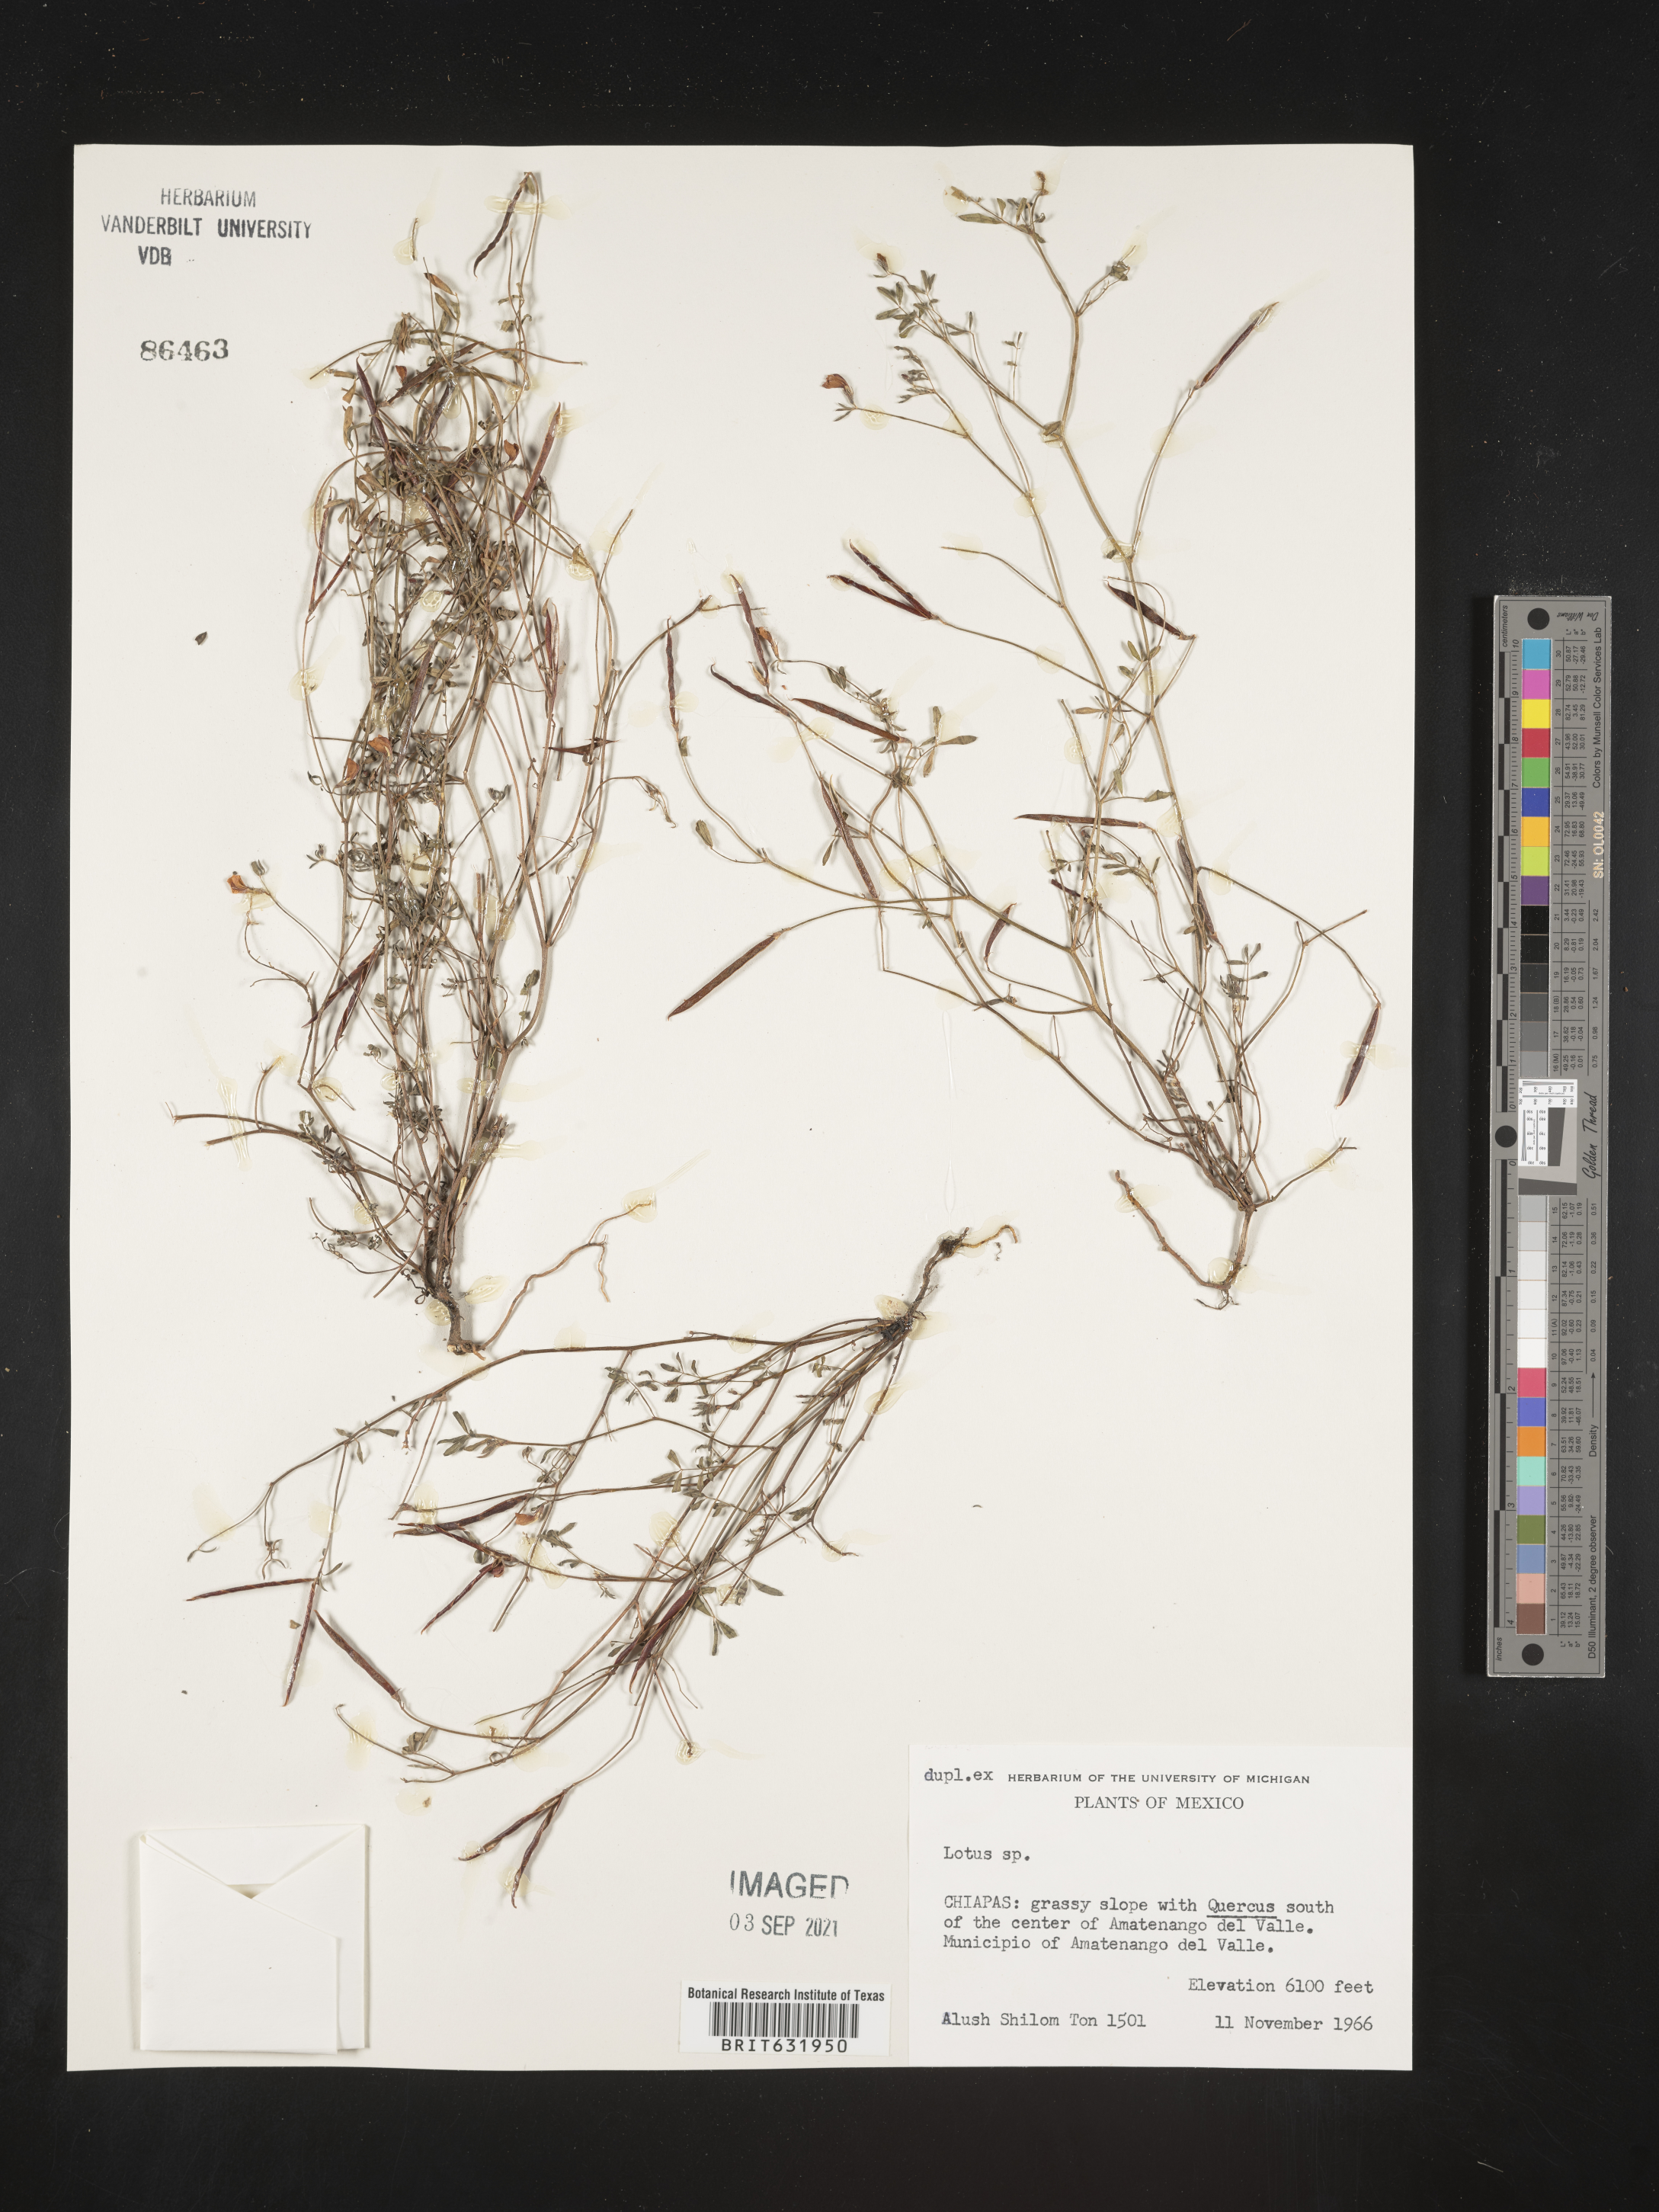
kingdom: Plantae
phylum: Tracheophyta
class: Magnoliopsida
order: Fabales
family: Fabaceae
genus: Lotus
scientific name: Lotus
